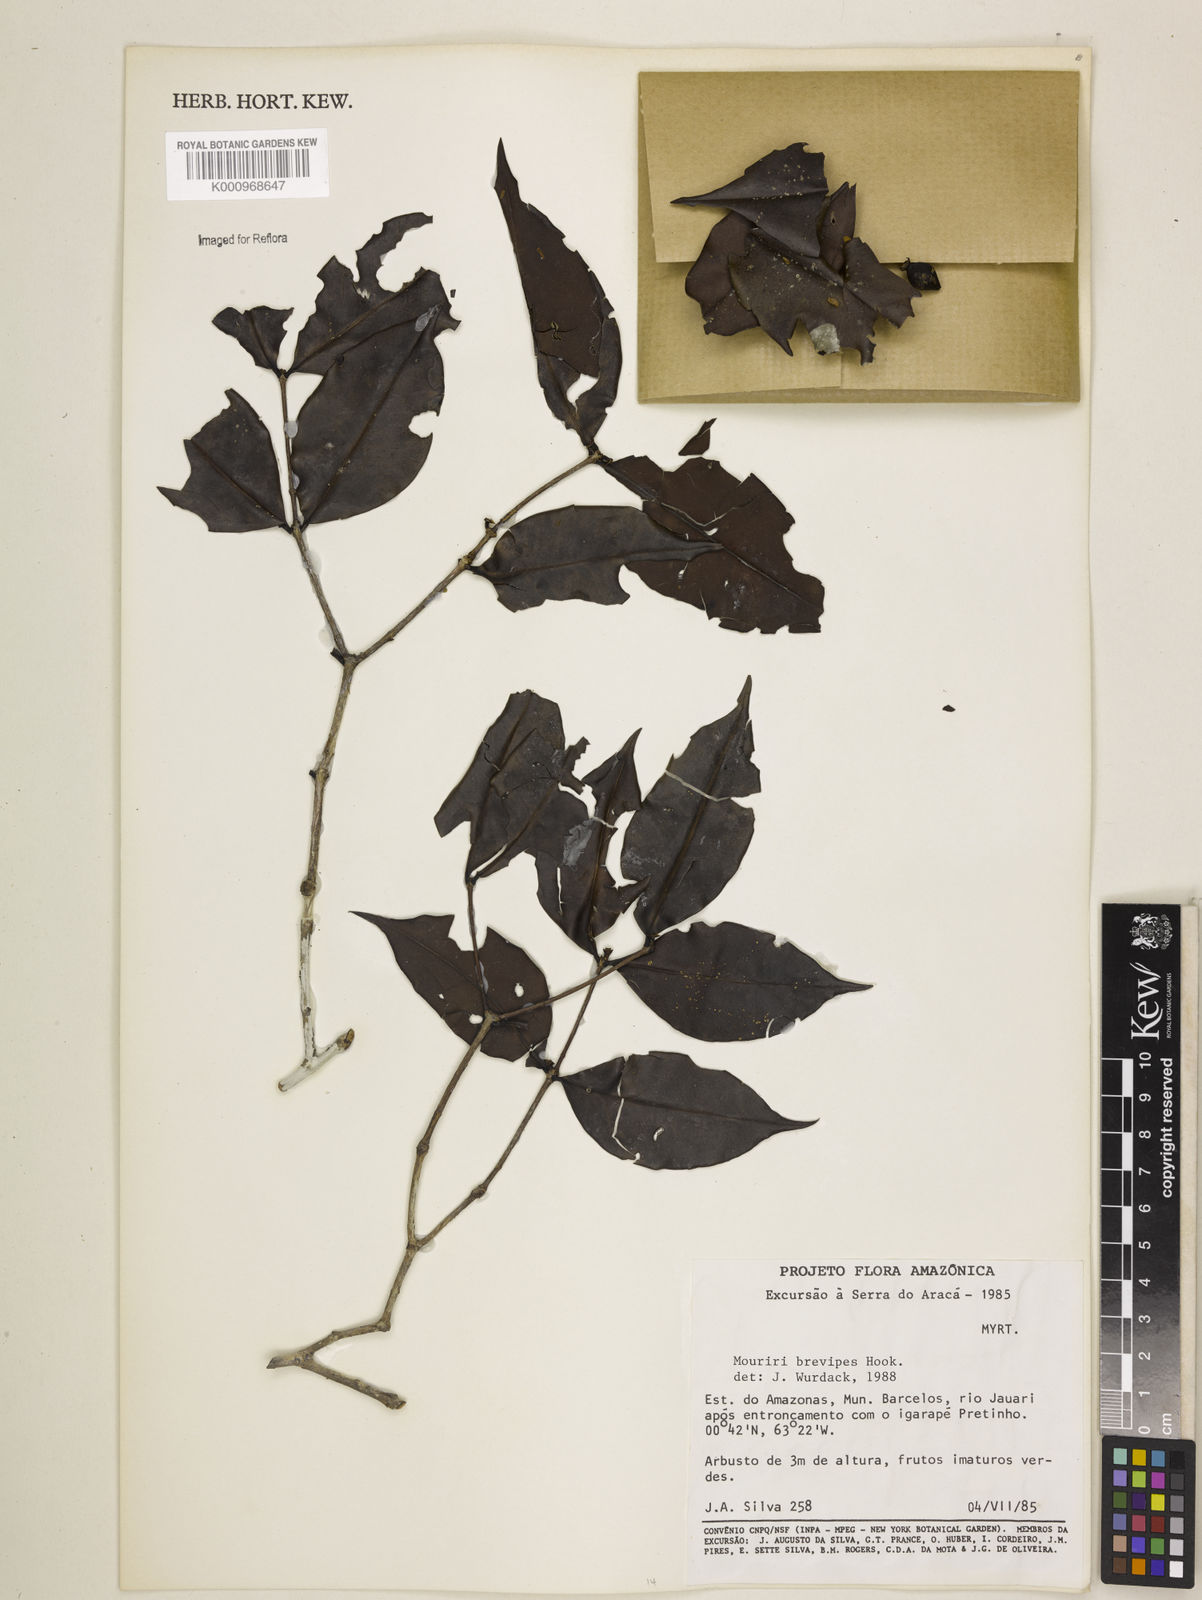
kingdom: Plantae
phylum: Tracheophyta
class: Magnoliopsida
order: Myrtales
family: Melastomataceae
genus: Mouriri
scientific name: Mouriri
